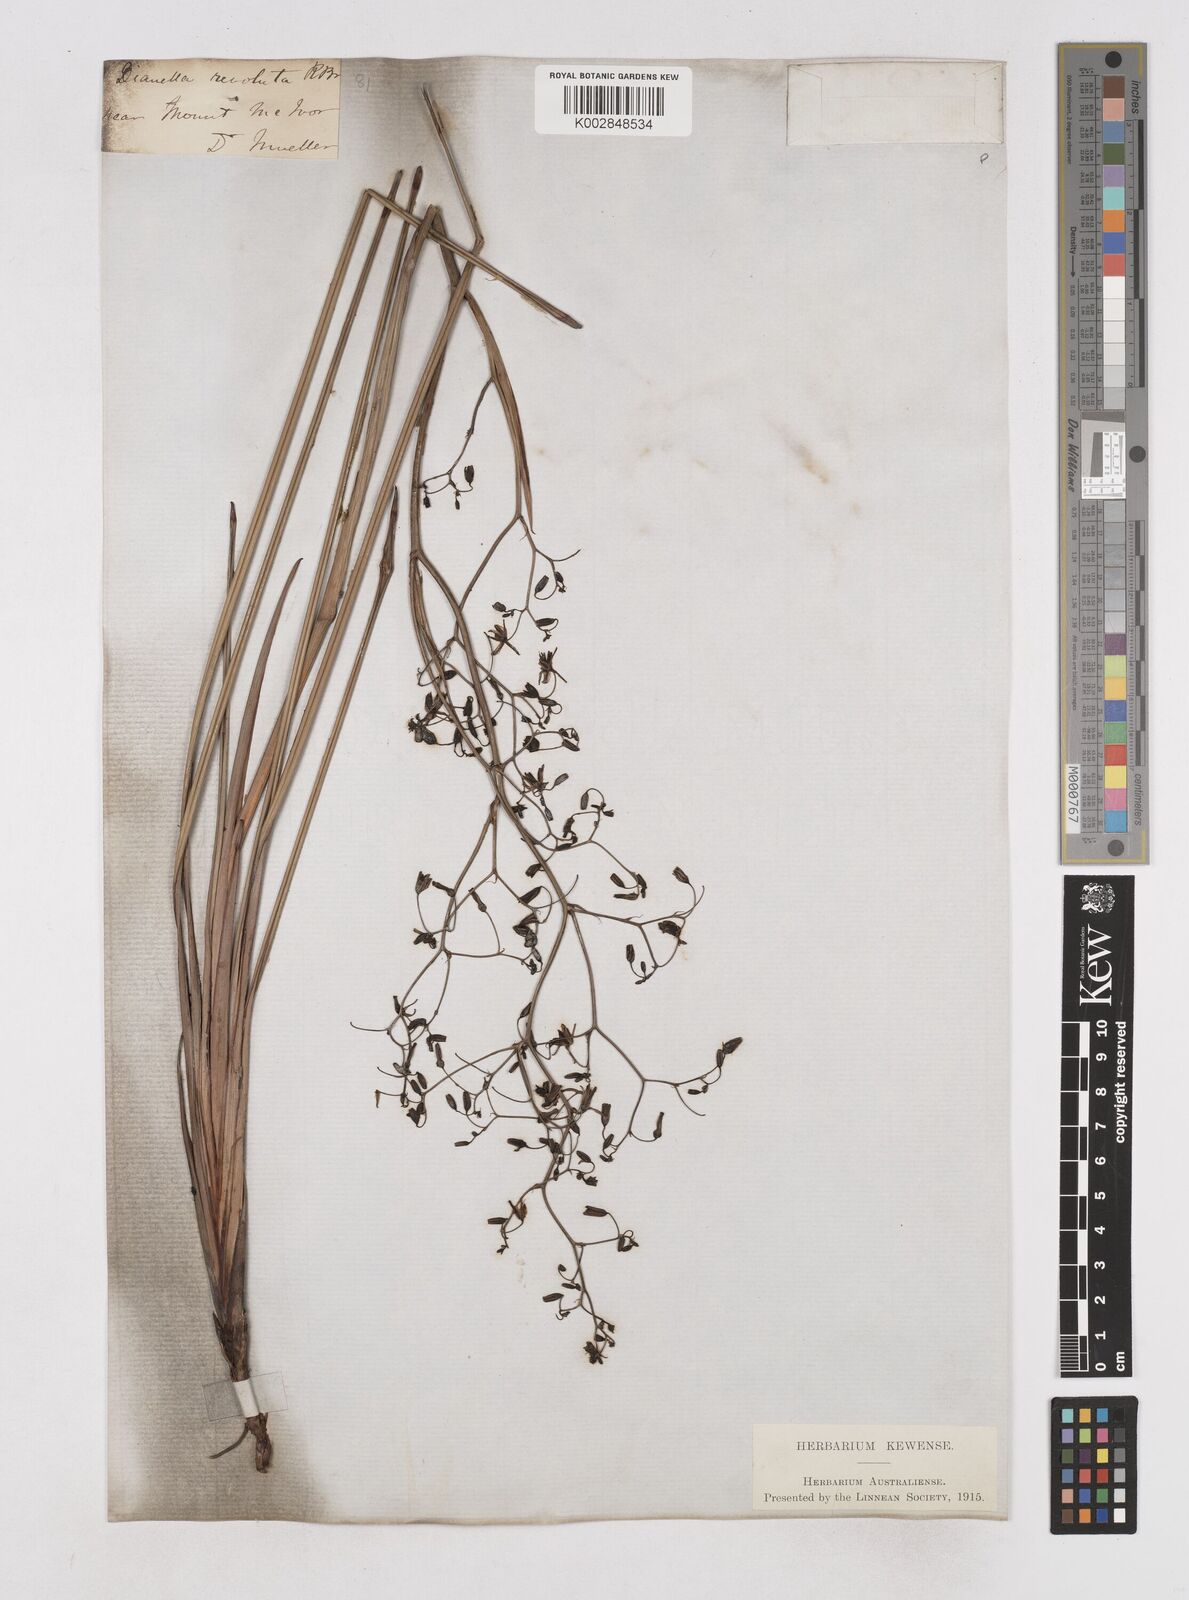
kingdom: Plantae
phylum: Tracheophyta
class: Liliopsida
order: Asparagales
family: Asphodelaceae
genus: Dianella
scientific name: Dianella revoluta
